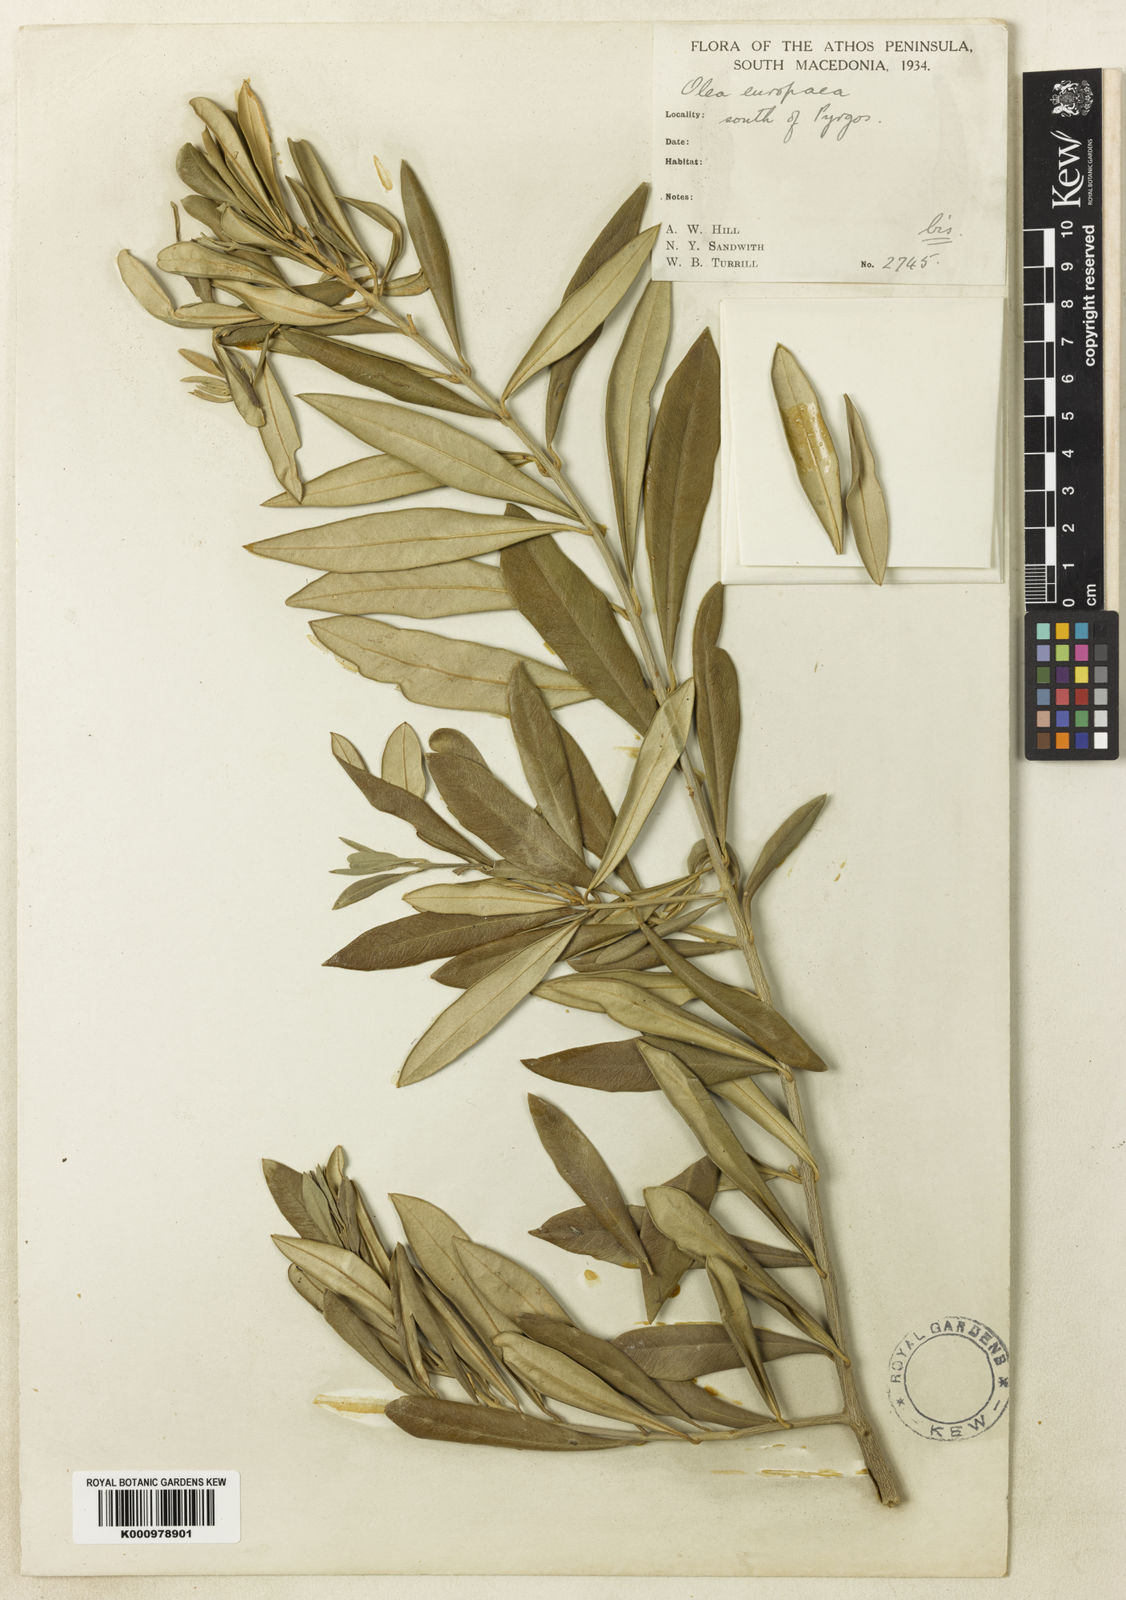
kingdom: Plantae
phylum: Tracheophyta
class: Magnoliopsida
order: Lamiales
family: Oleaceae
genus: Olea
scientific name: Olea europaea
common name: Olive
